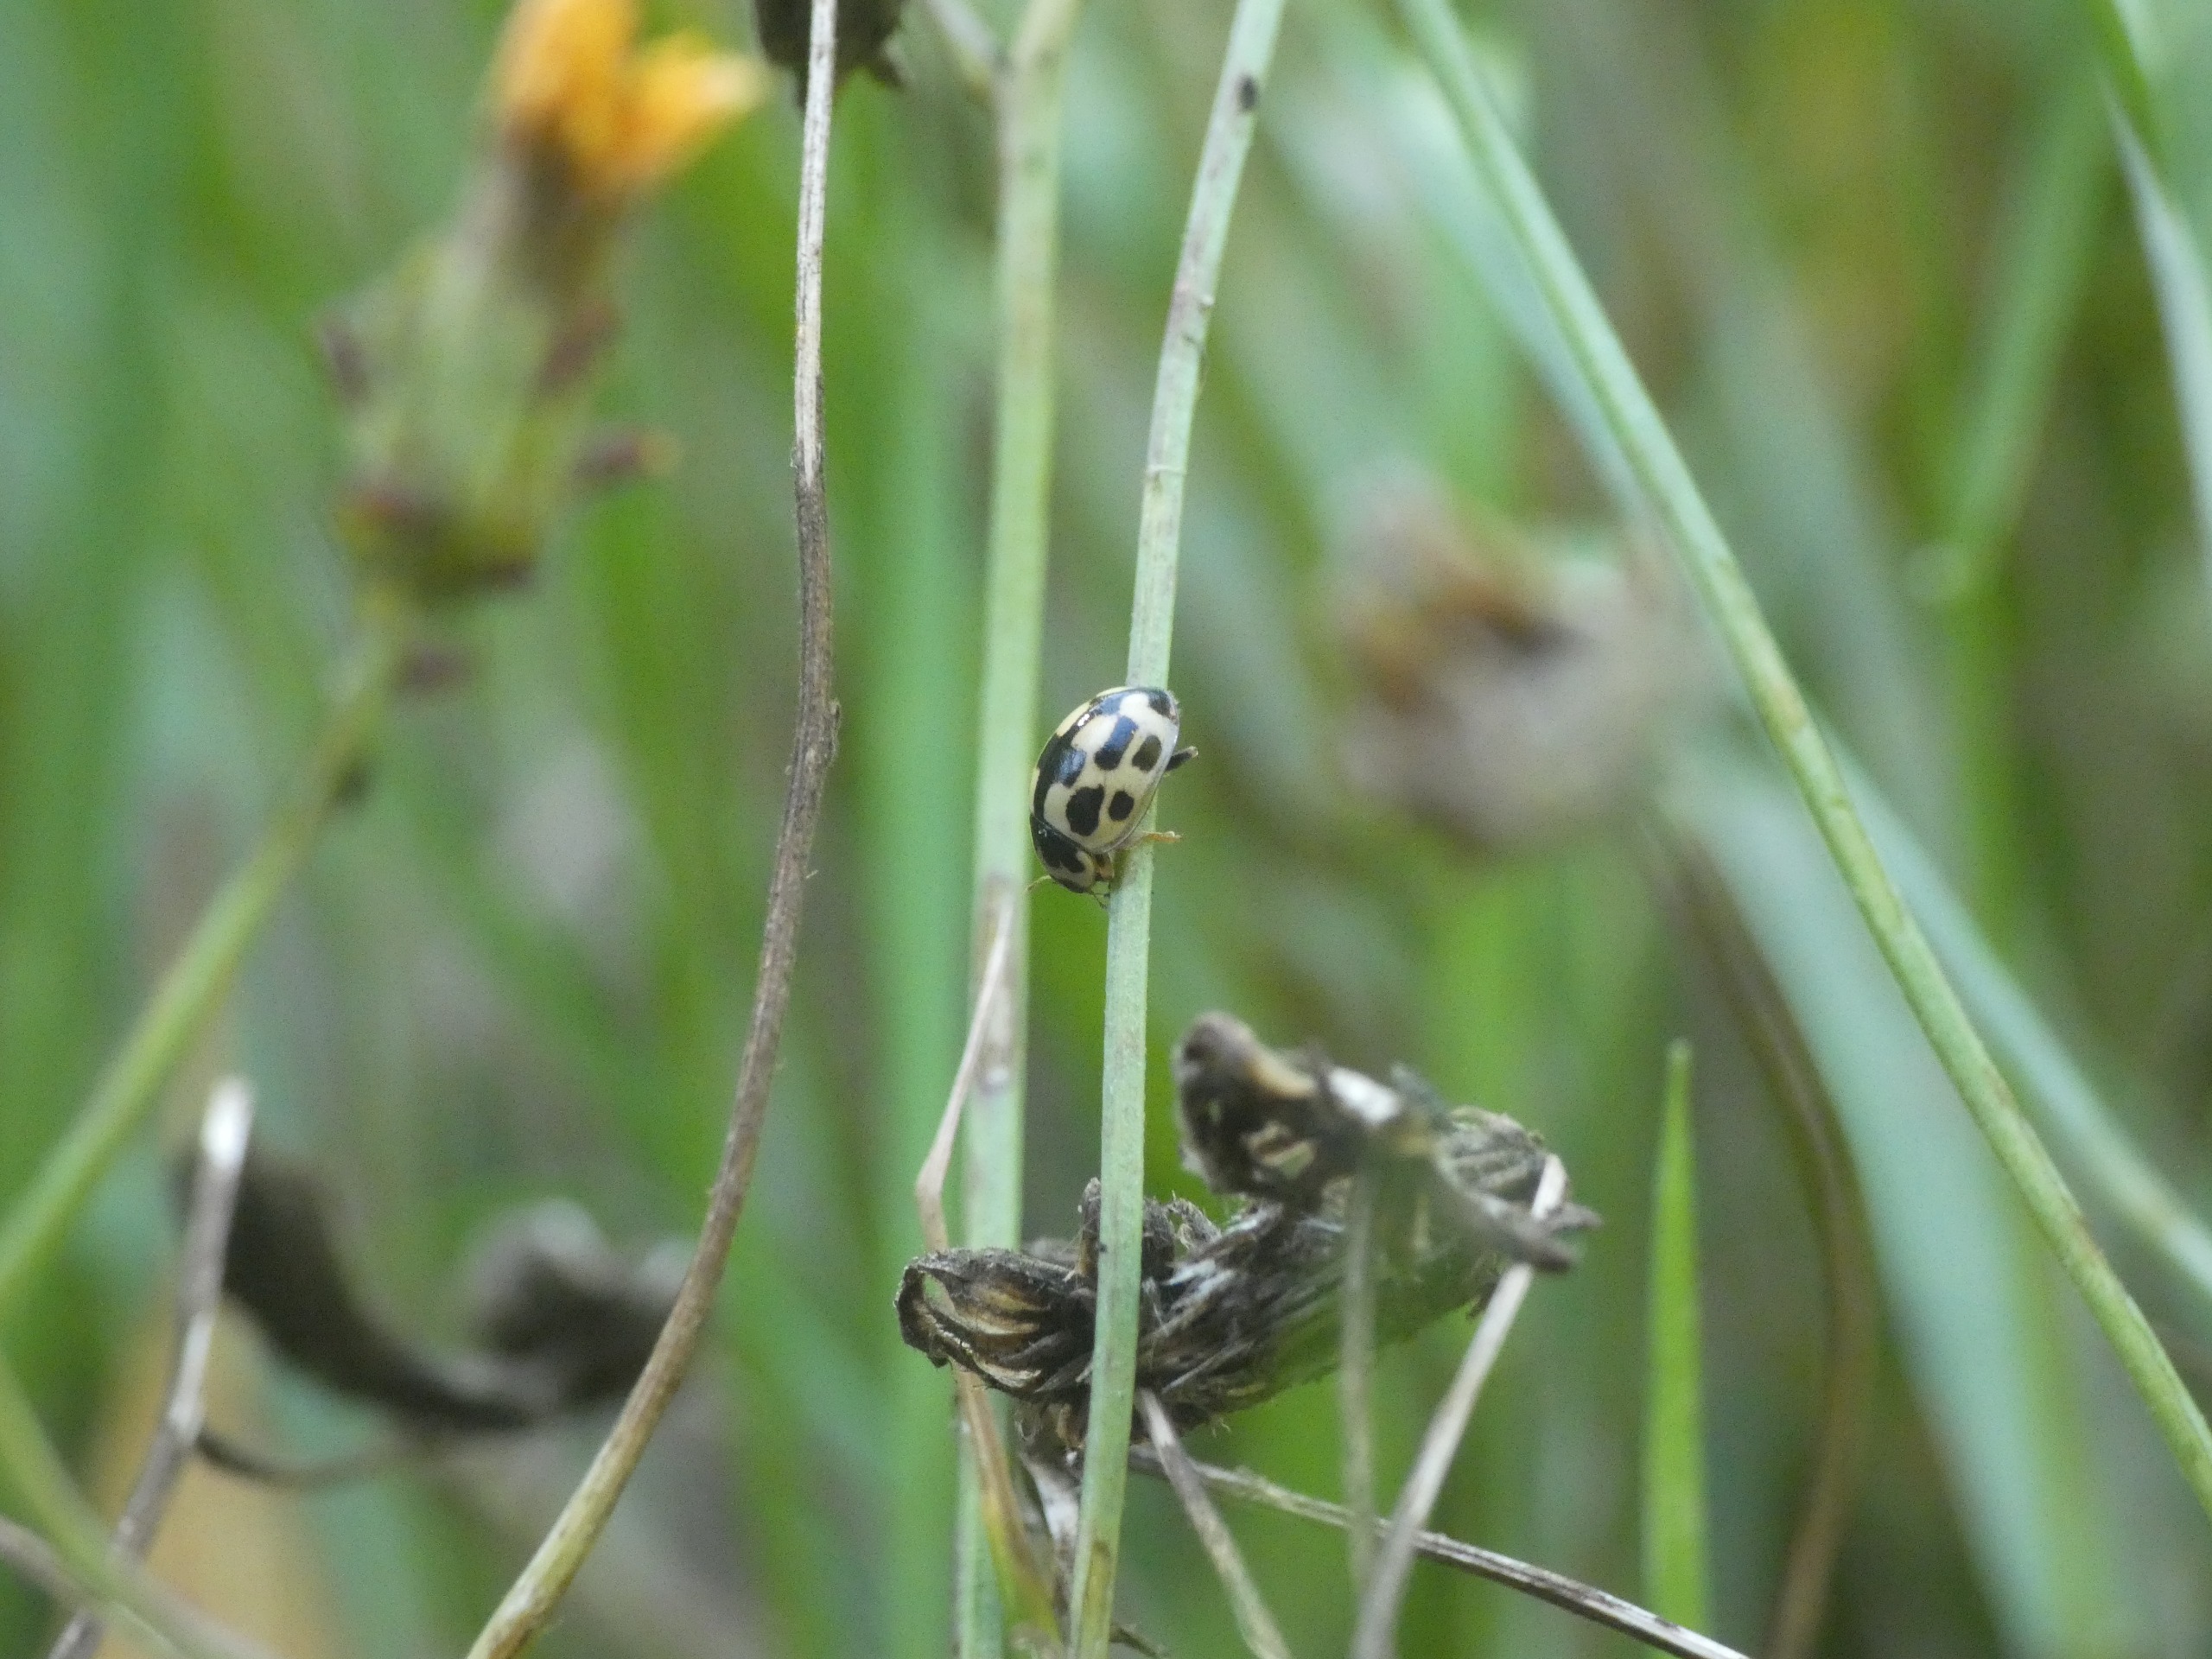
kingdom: Animalia
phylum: Arthropoda
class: Insecta
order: Coleoptera
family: Coccinellidae
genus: Propylaea
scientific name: Propylaea quatuordecimpunctata
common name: Skakbræt
